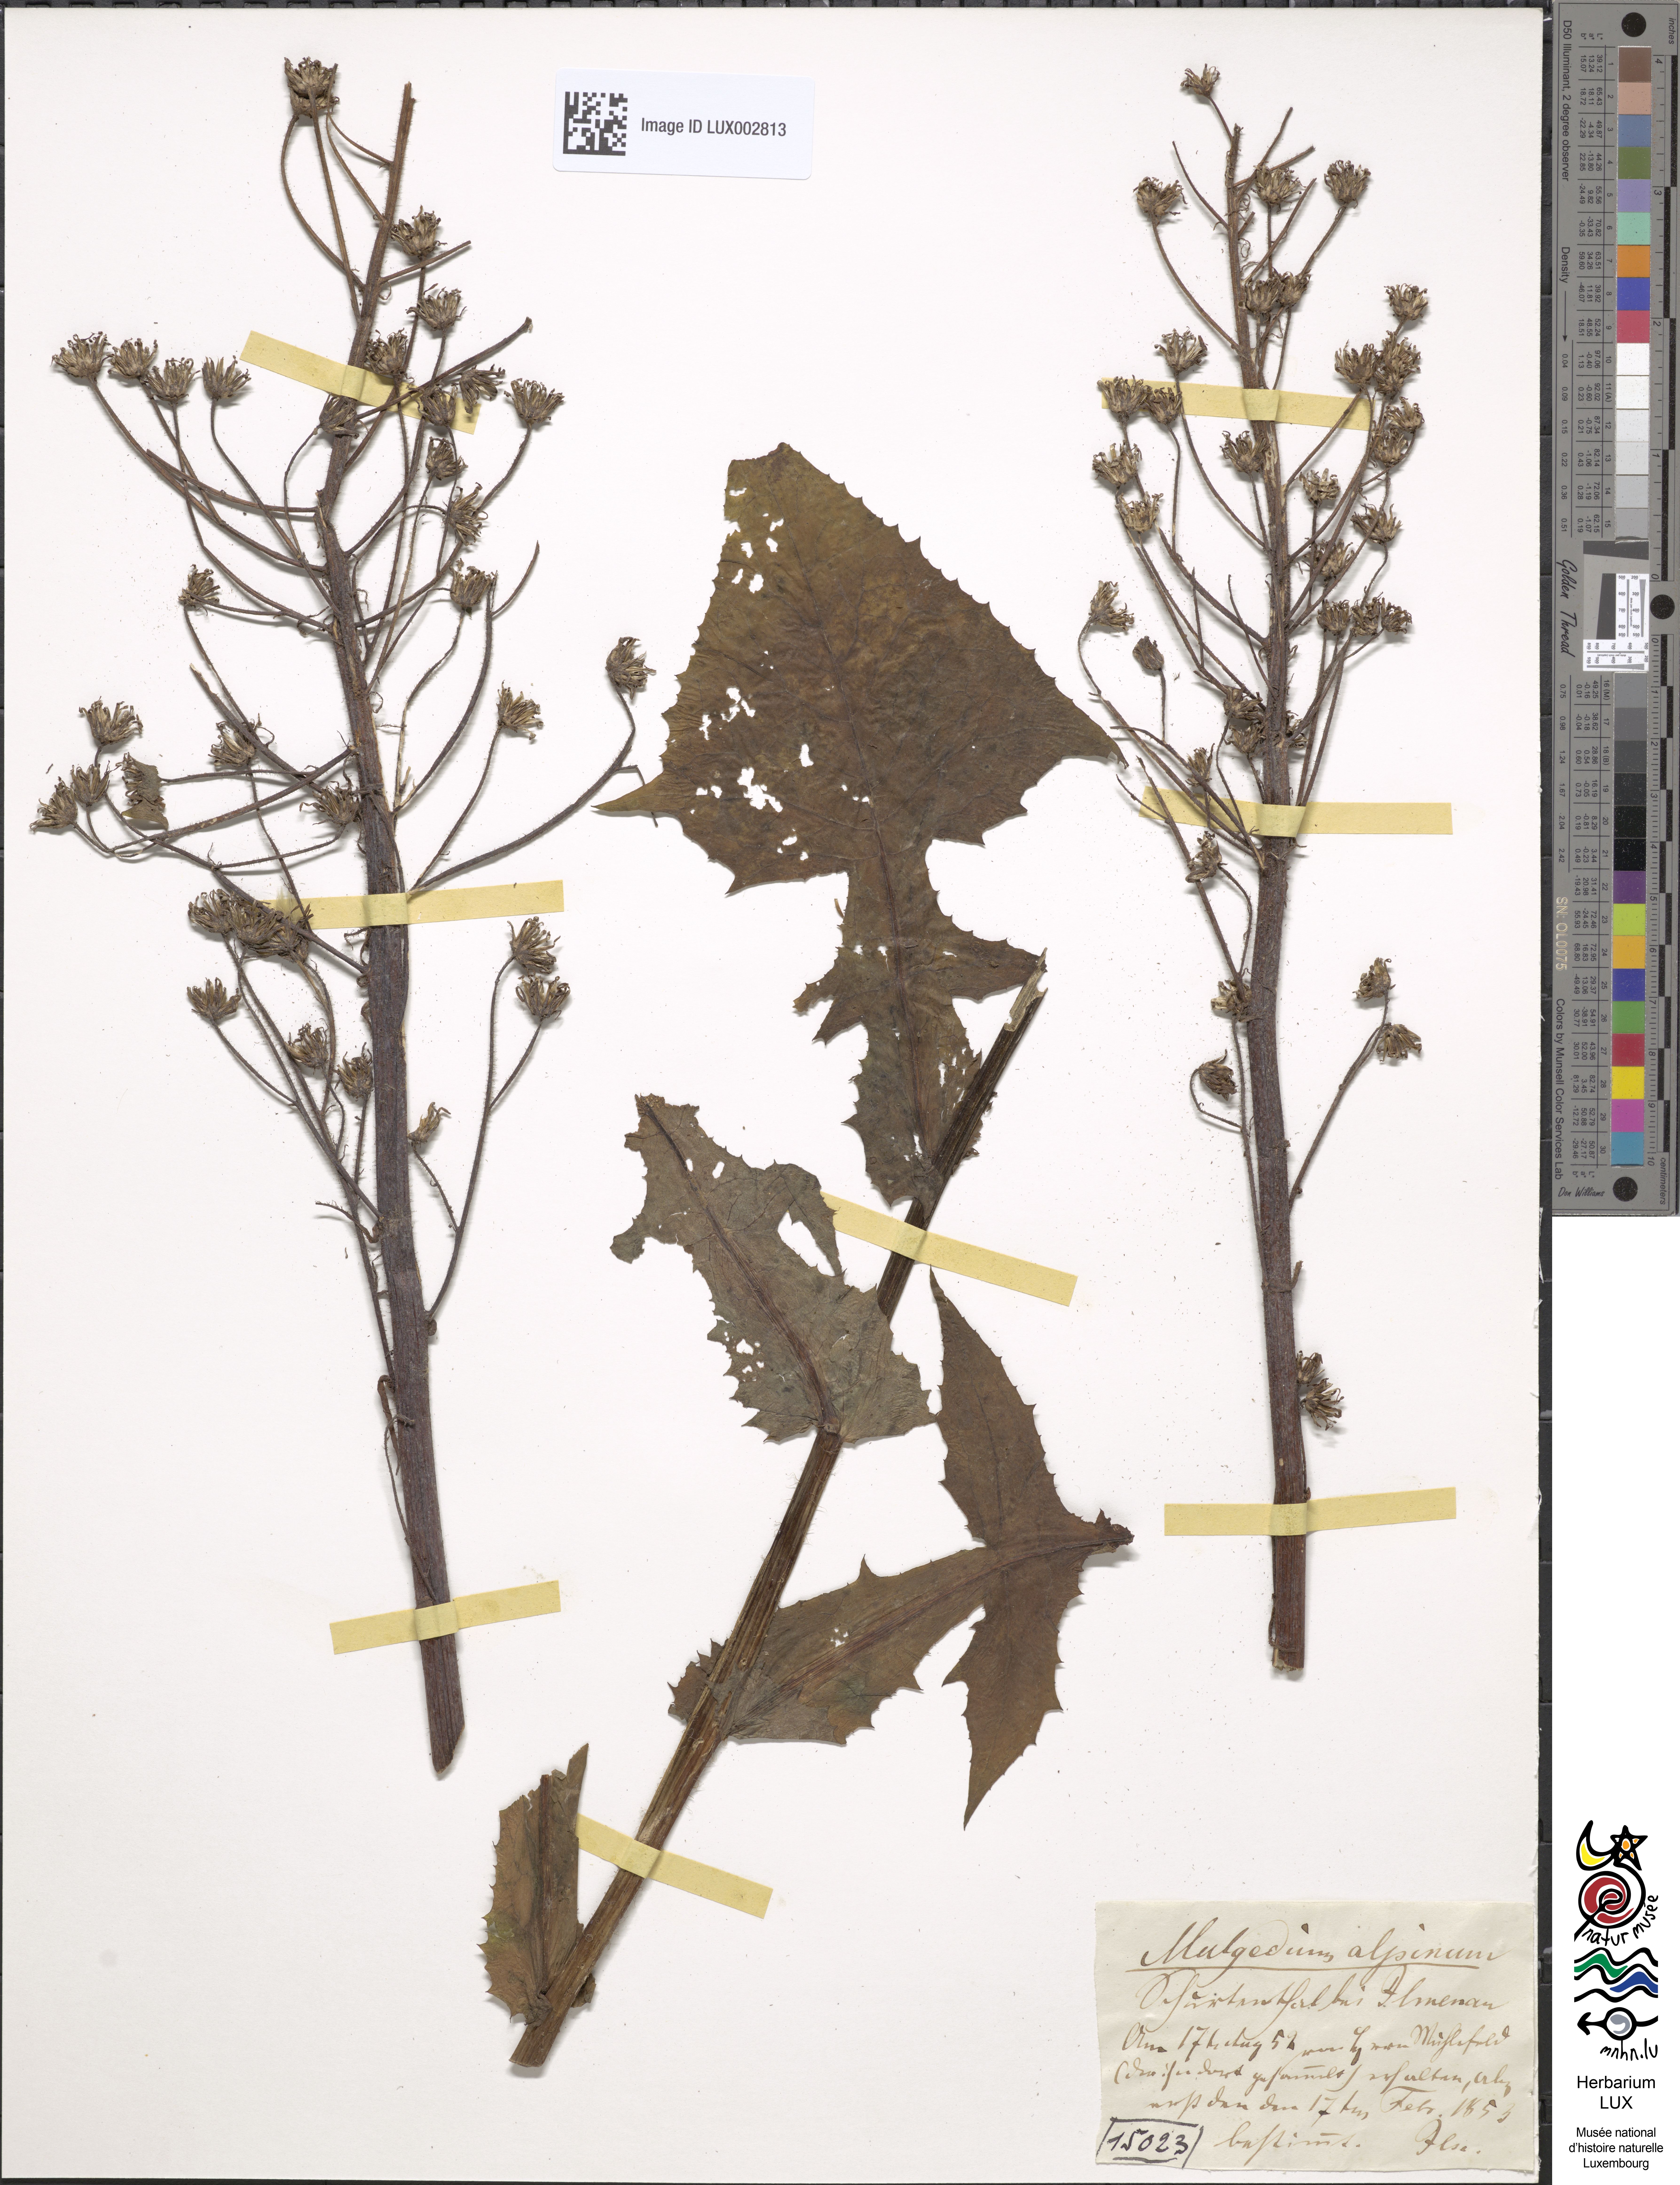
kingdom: Plantae
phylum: Tracheophyta
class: Magnoliopsida
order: Asterales
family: Asteraceae
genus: Cicerbita
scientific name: Cicerbita alpina
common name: Alpine blue-sow-thistle
